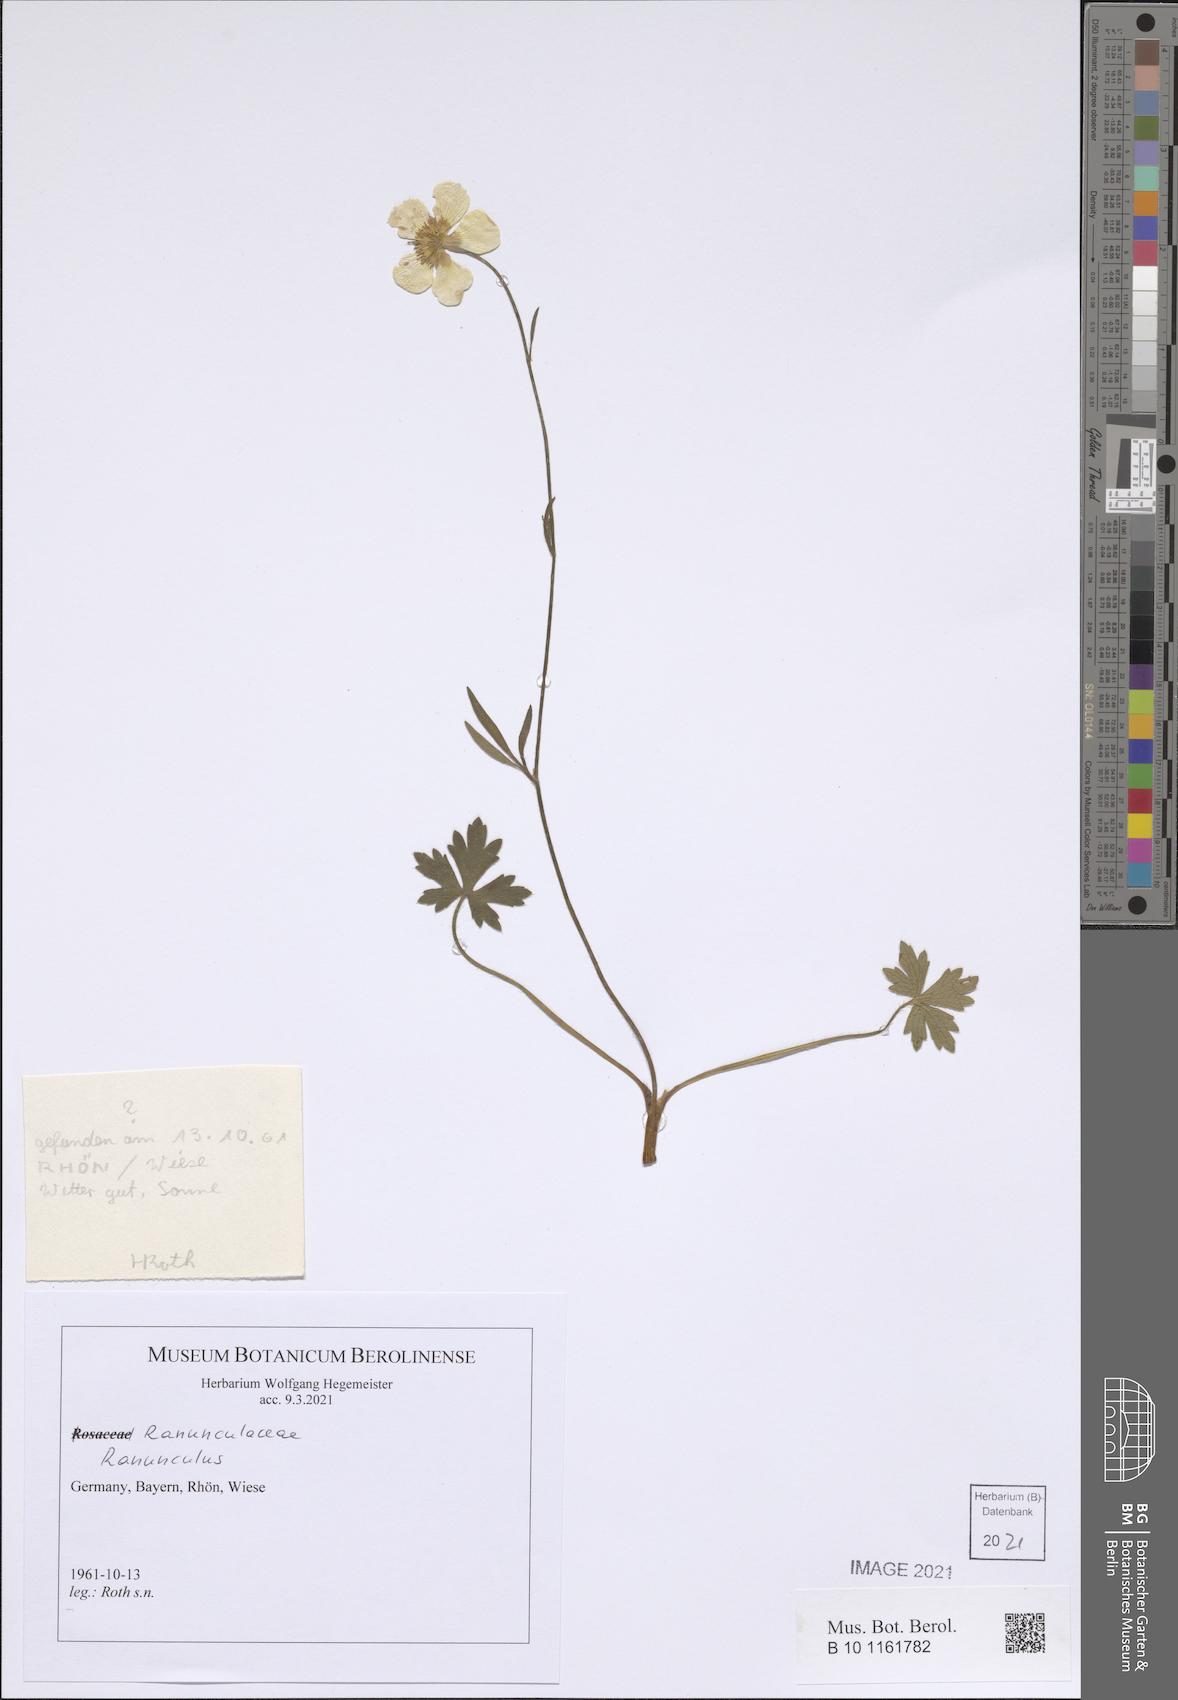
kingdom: Plantae
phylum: Tracheophyta
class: Magnoliopsida
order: Ranunculales
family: Ranunculaceae
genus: Ranunculus
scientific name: Ranunculus
